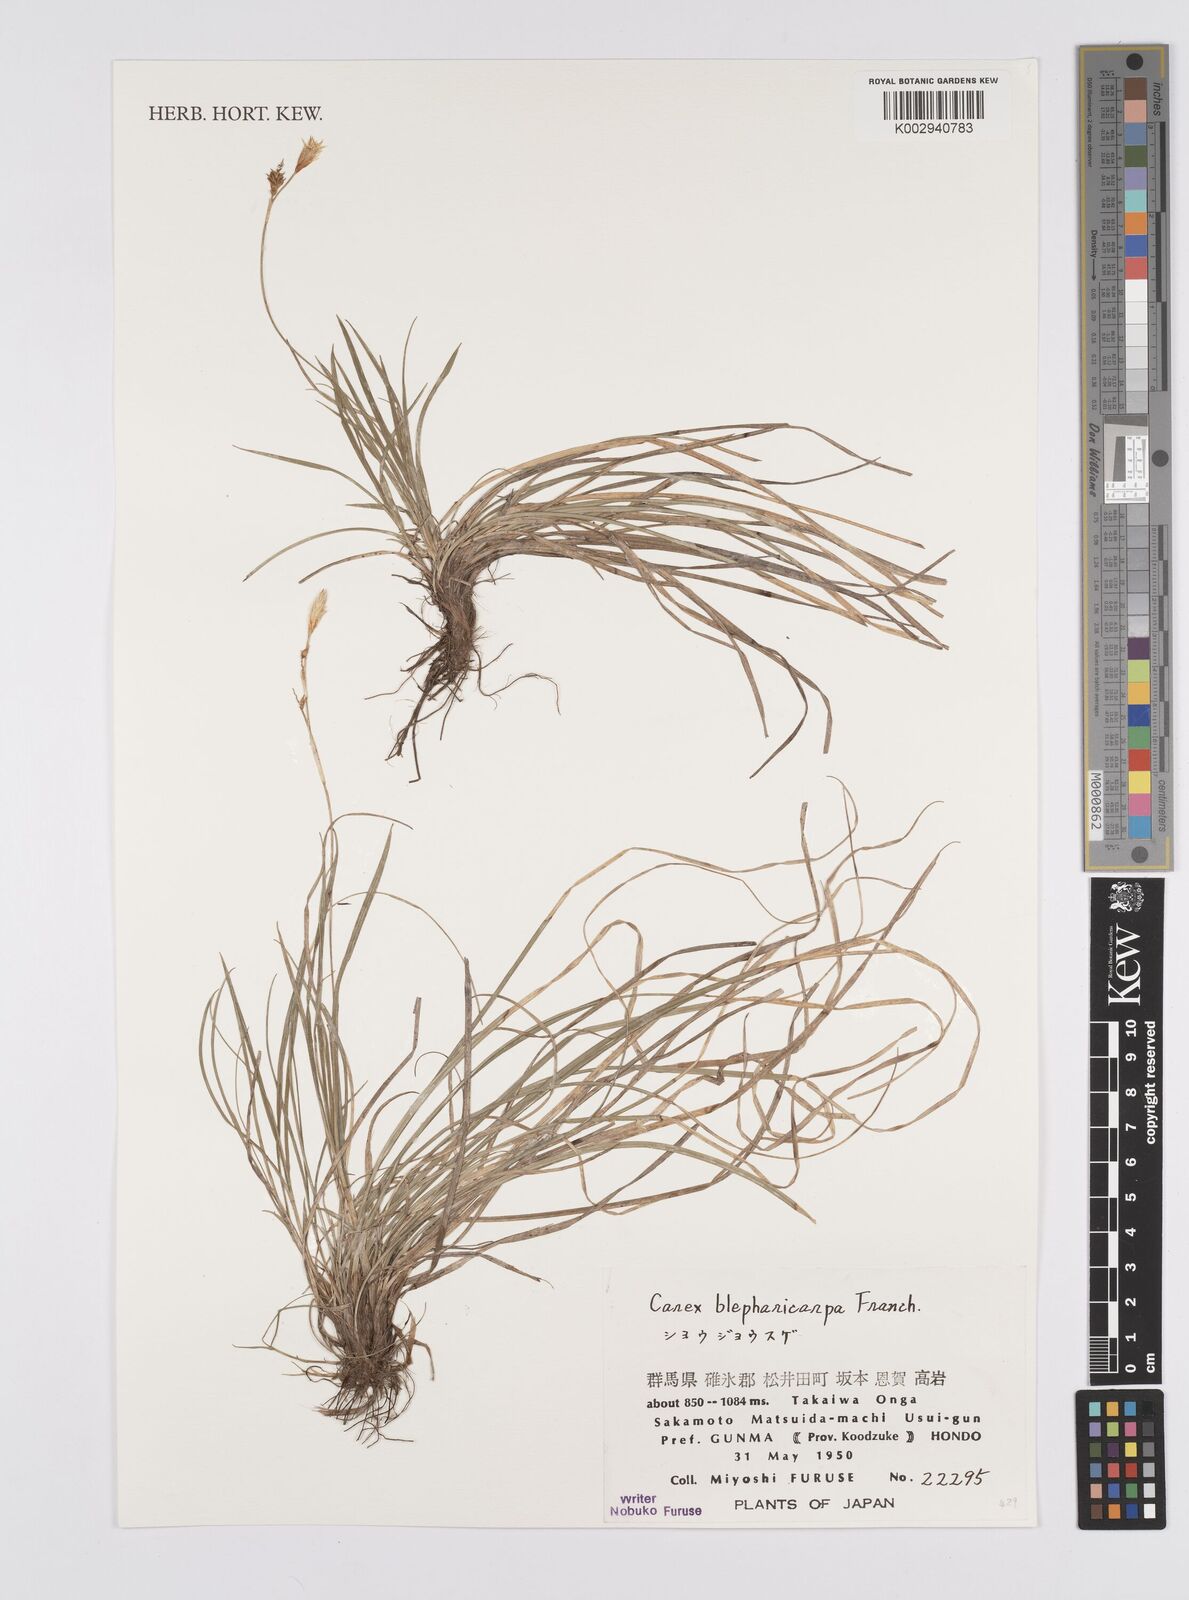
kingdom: Plantae
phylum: Tracheophyta
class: Liliopsida
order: Poales
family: Cyperaceae
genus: Carex
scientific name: Carex blepharicarpa
